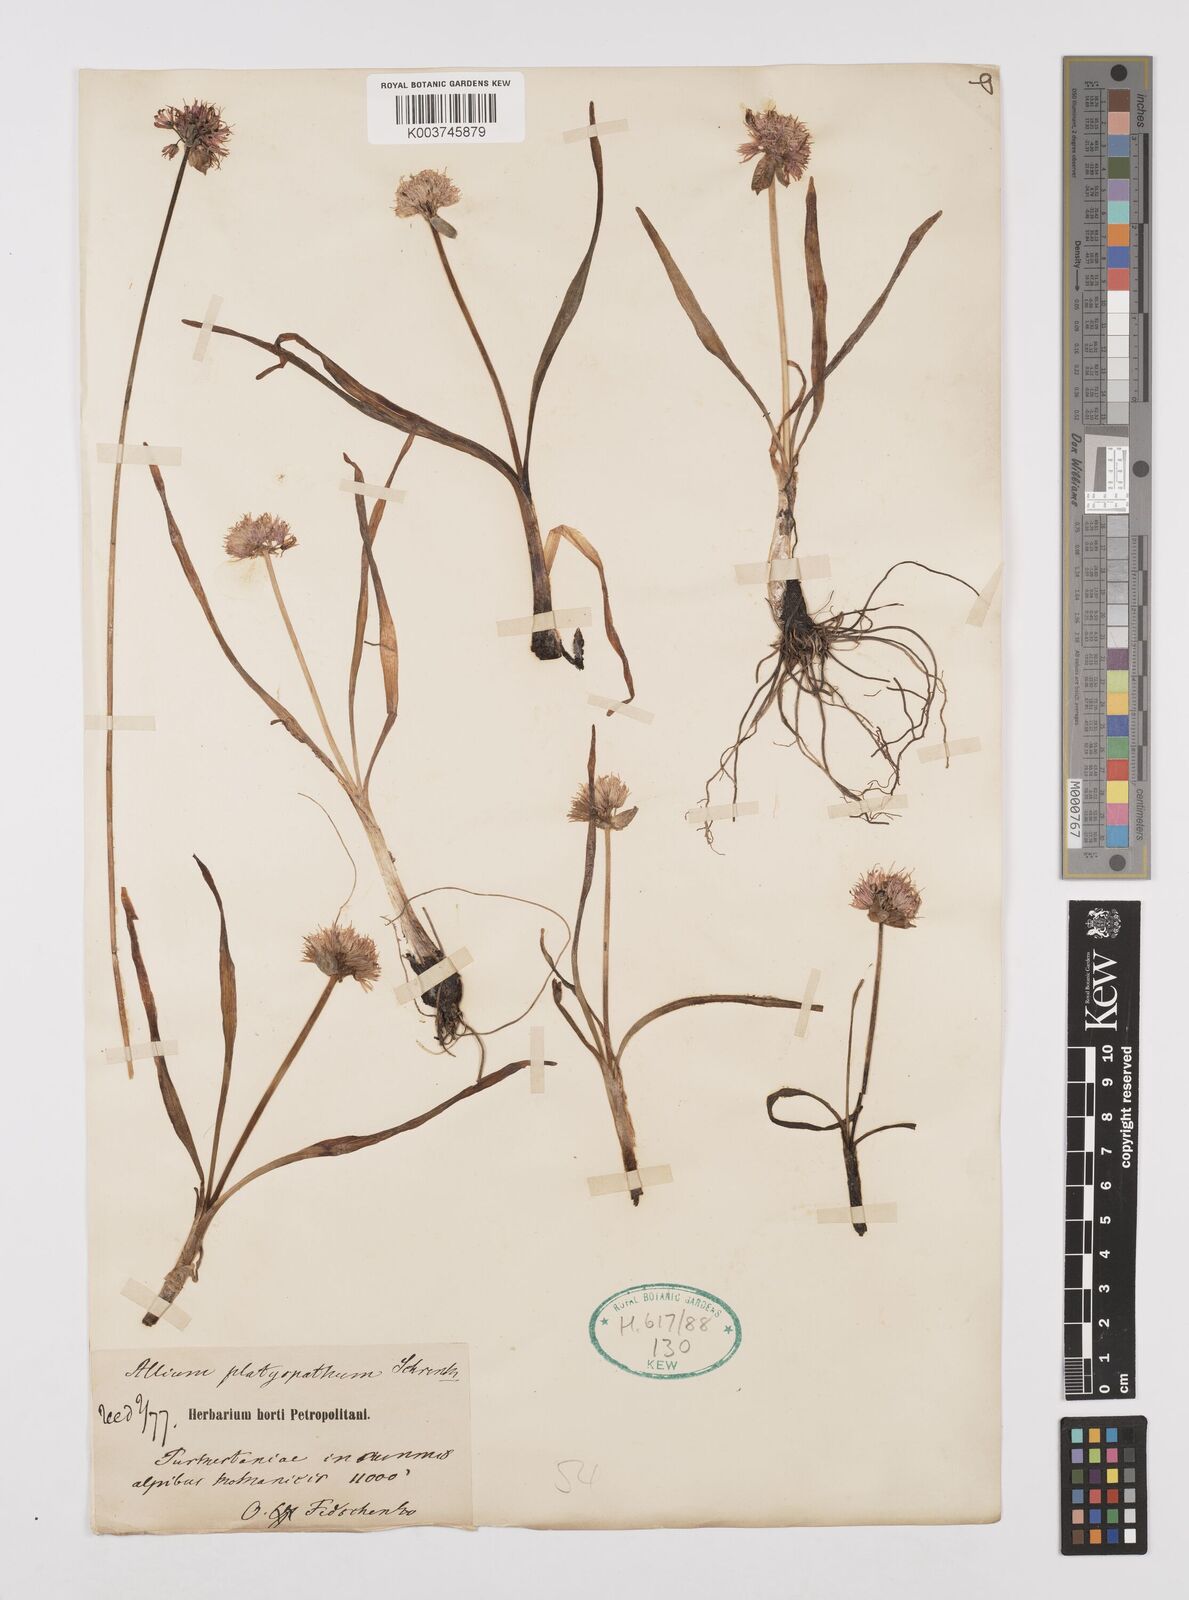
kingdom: Plantae
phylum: Tracheophyta
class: Liliopsida
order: Asparagales
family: Amaryllidaceae
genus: Allium
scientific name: Allium platyspathum
